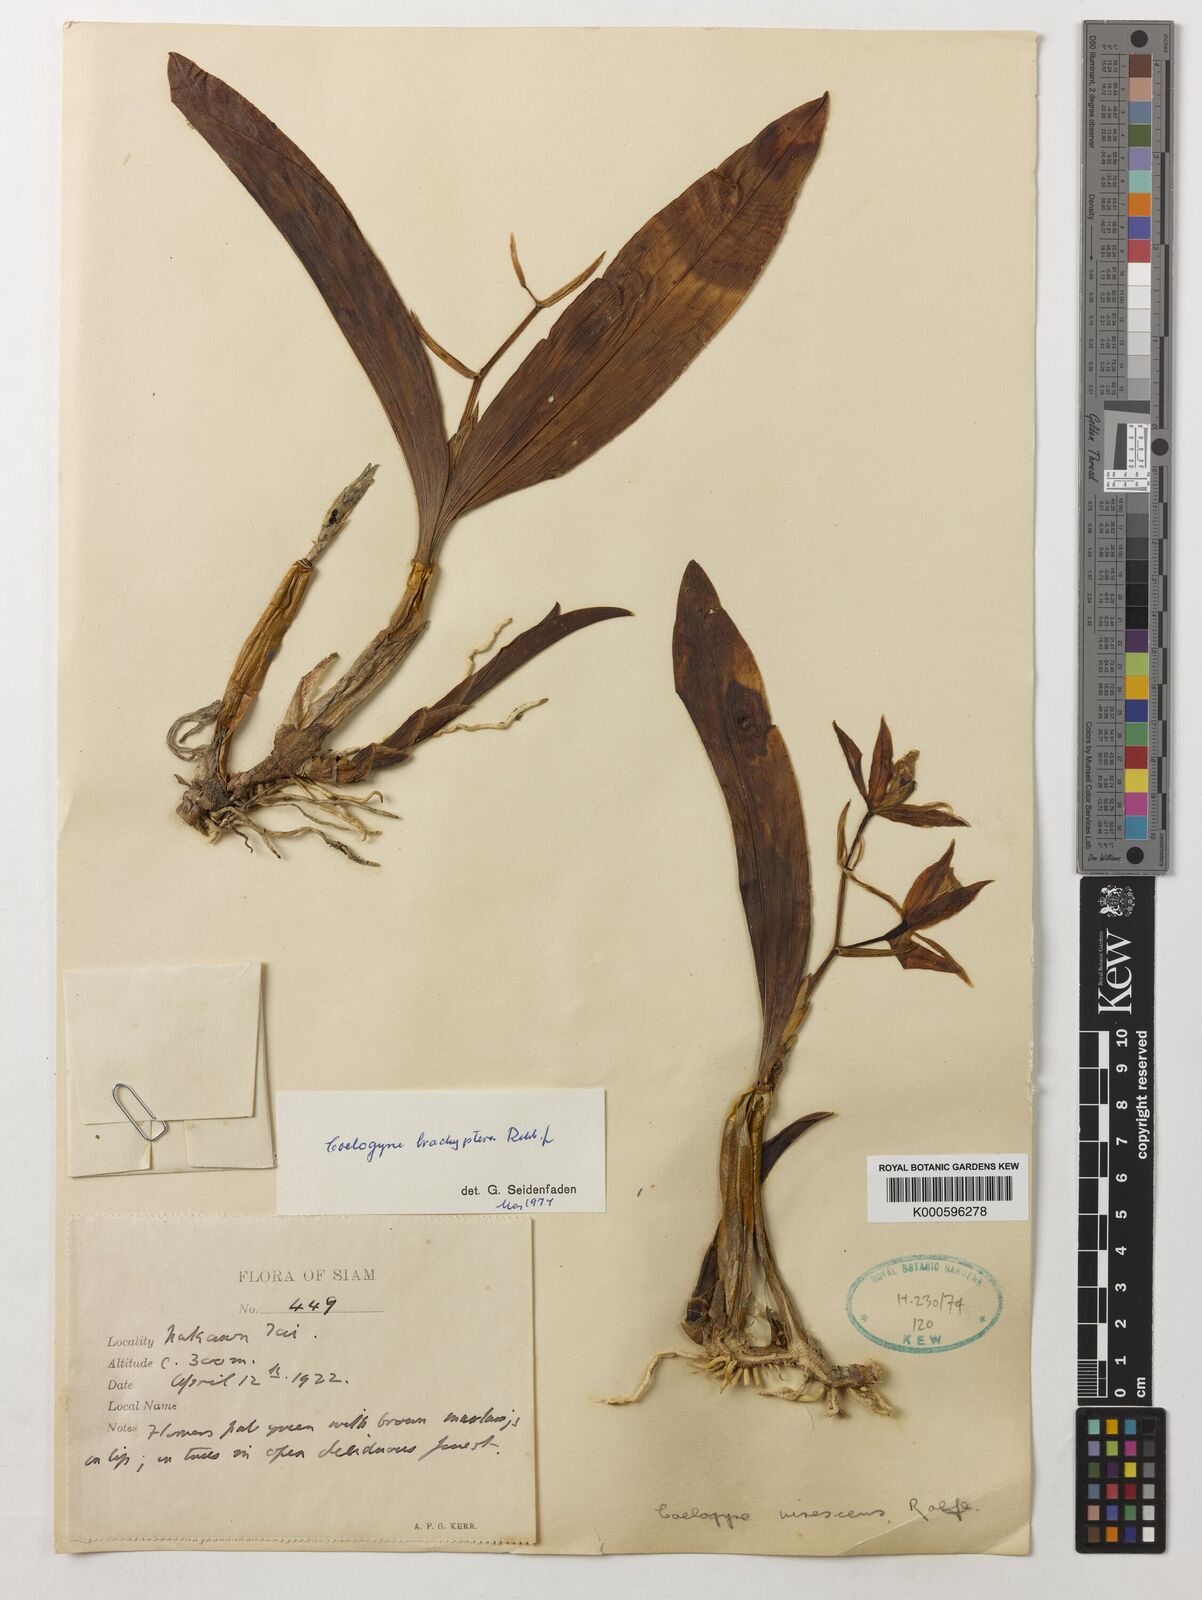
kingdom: Plantae
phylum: Tracheophyta
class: Liliopsida
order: Asparagales
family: Orchidaceae
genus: Coelogyne
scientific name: Coelogyne brachyptera
